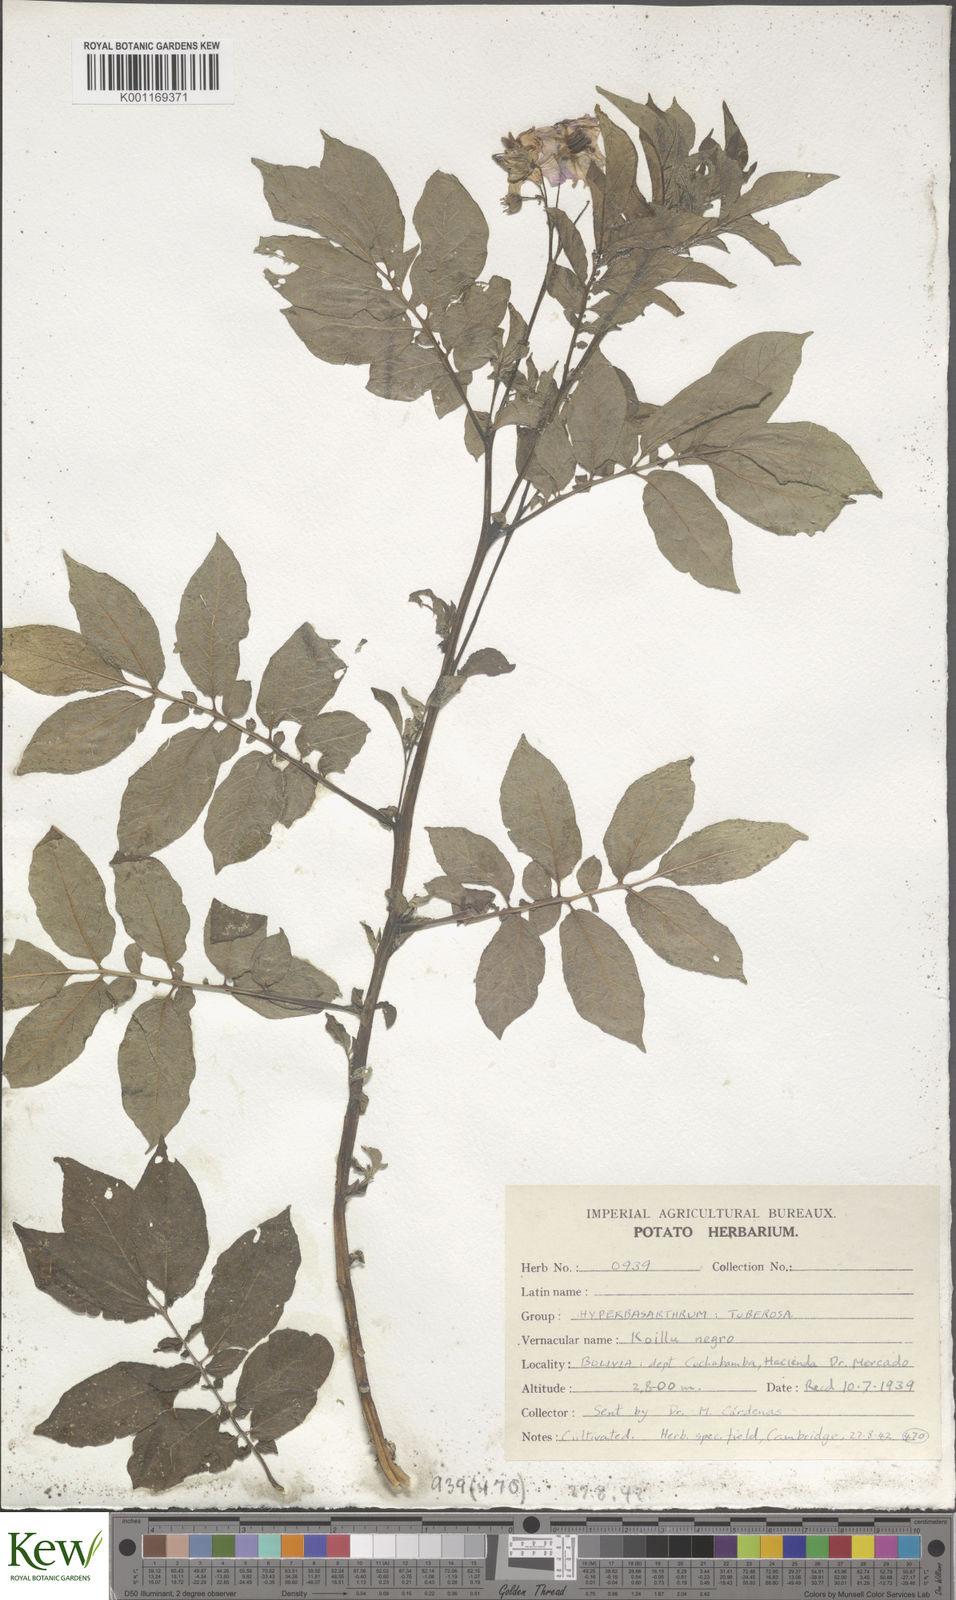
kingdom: Plantae
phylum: Tracheophyta
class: Magnoliopsida
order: Solanales
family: Solanaceae
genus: Solanum
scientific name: Solanum chaucha
